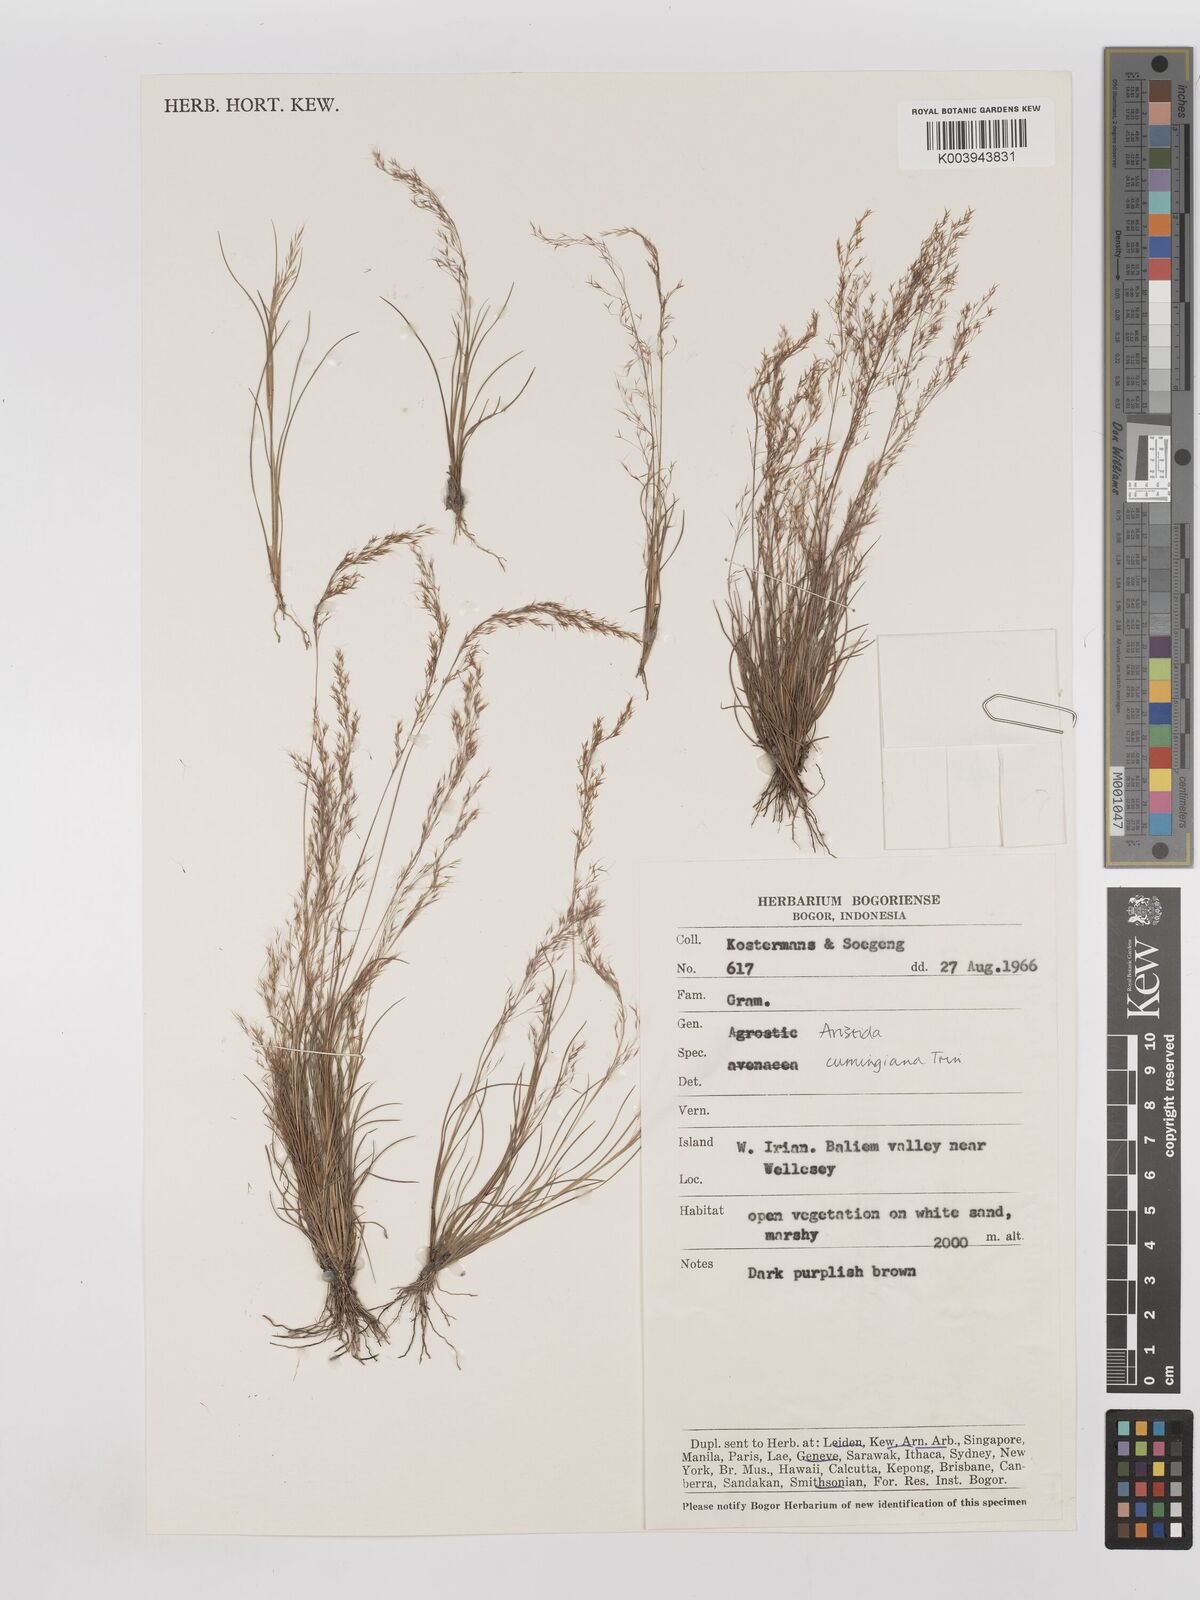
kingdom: Plantae
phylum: Tracheophyta
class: Liliopsida
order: Poales
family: Poaceae
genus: Aristida
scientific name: Aristida cumingiana
